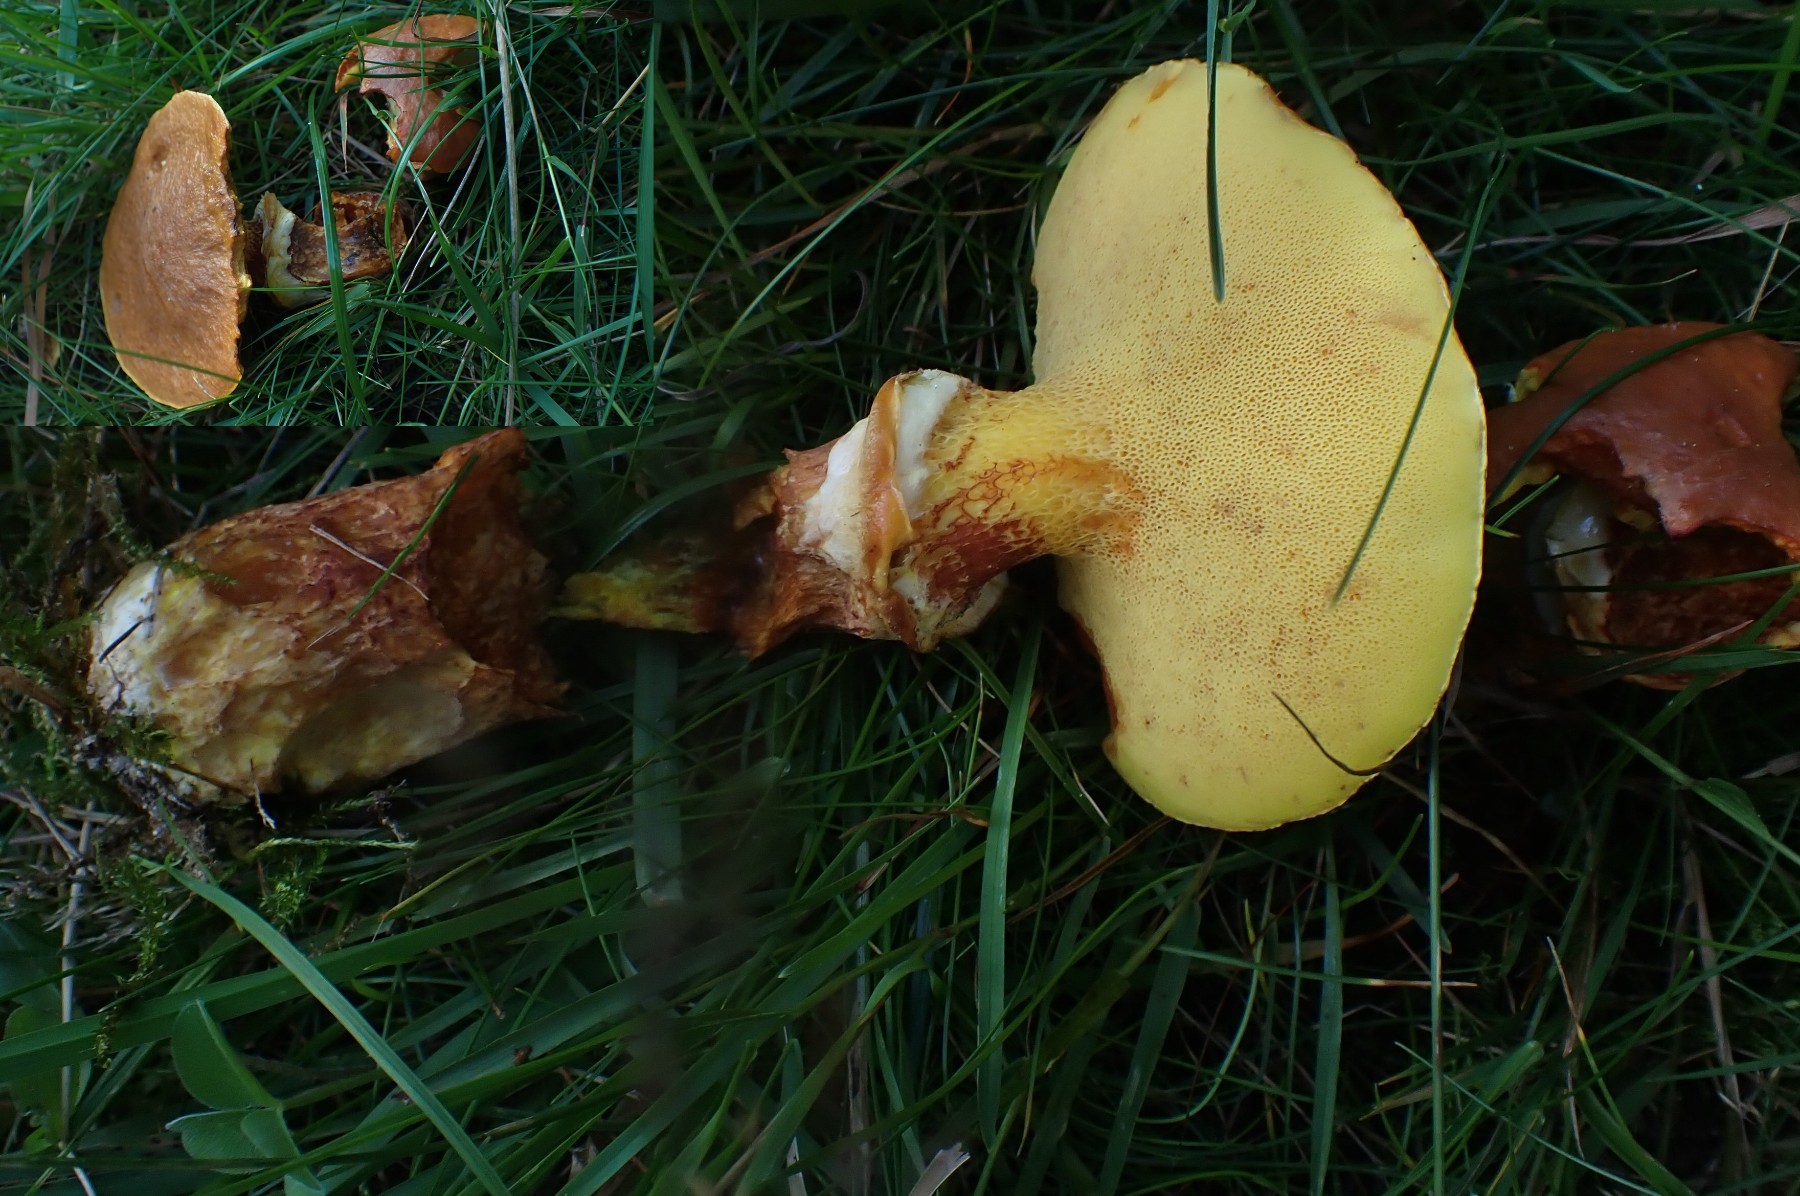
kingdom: Fungi
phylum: Basidiomycota
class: Agaricomycetes
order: Boletales
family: Suillaceae
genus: Suillus
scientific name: Suillus grevillei
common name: lærke-slimrørhat
